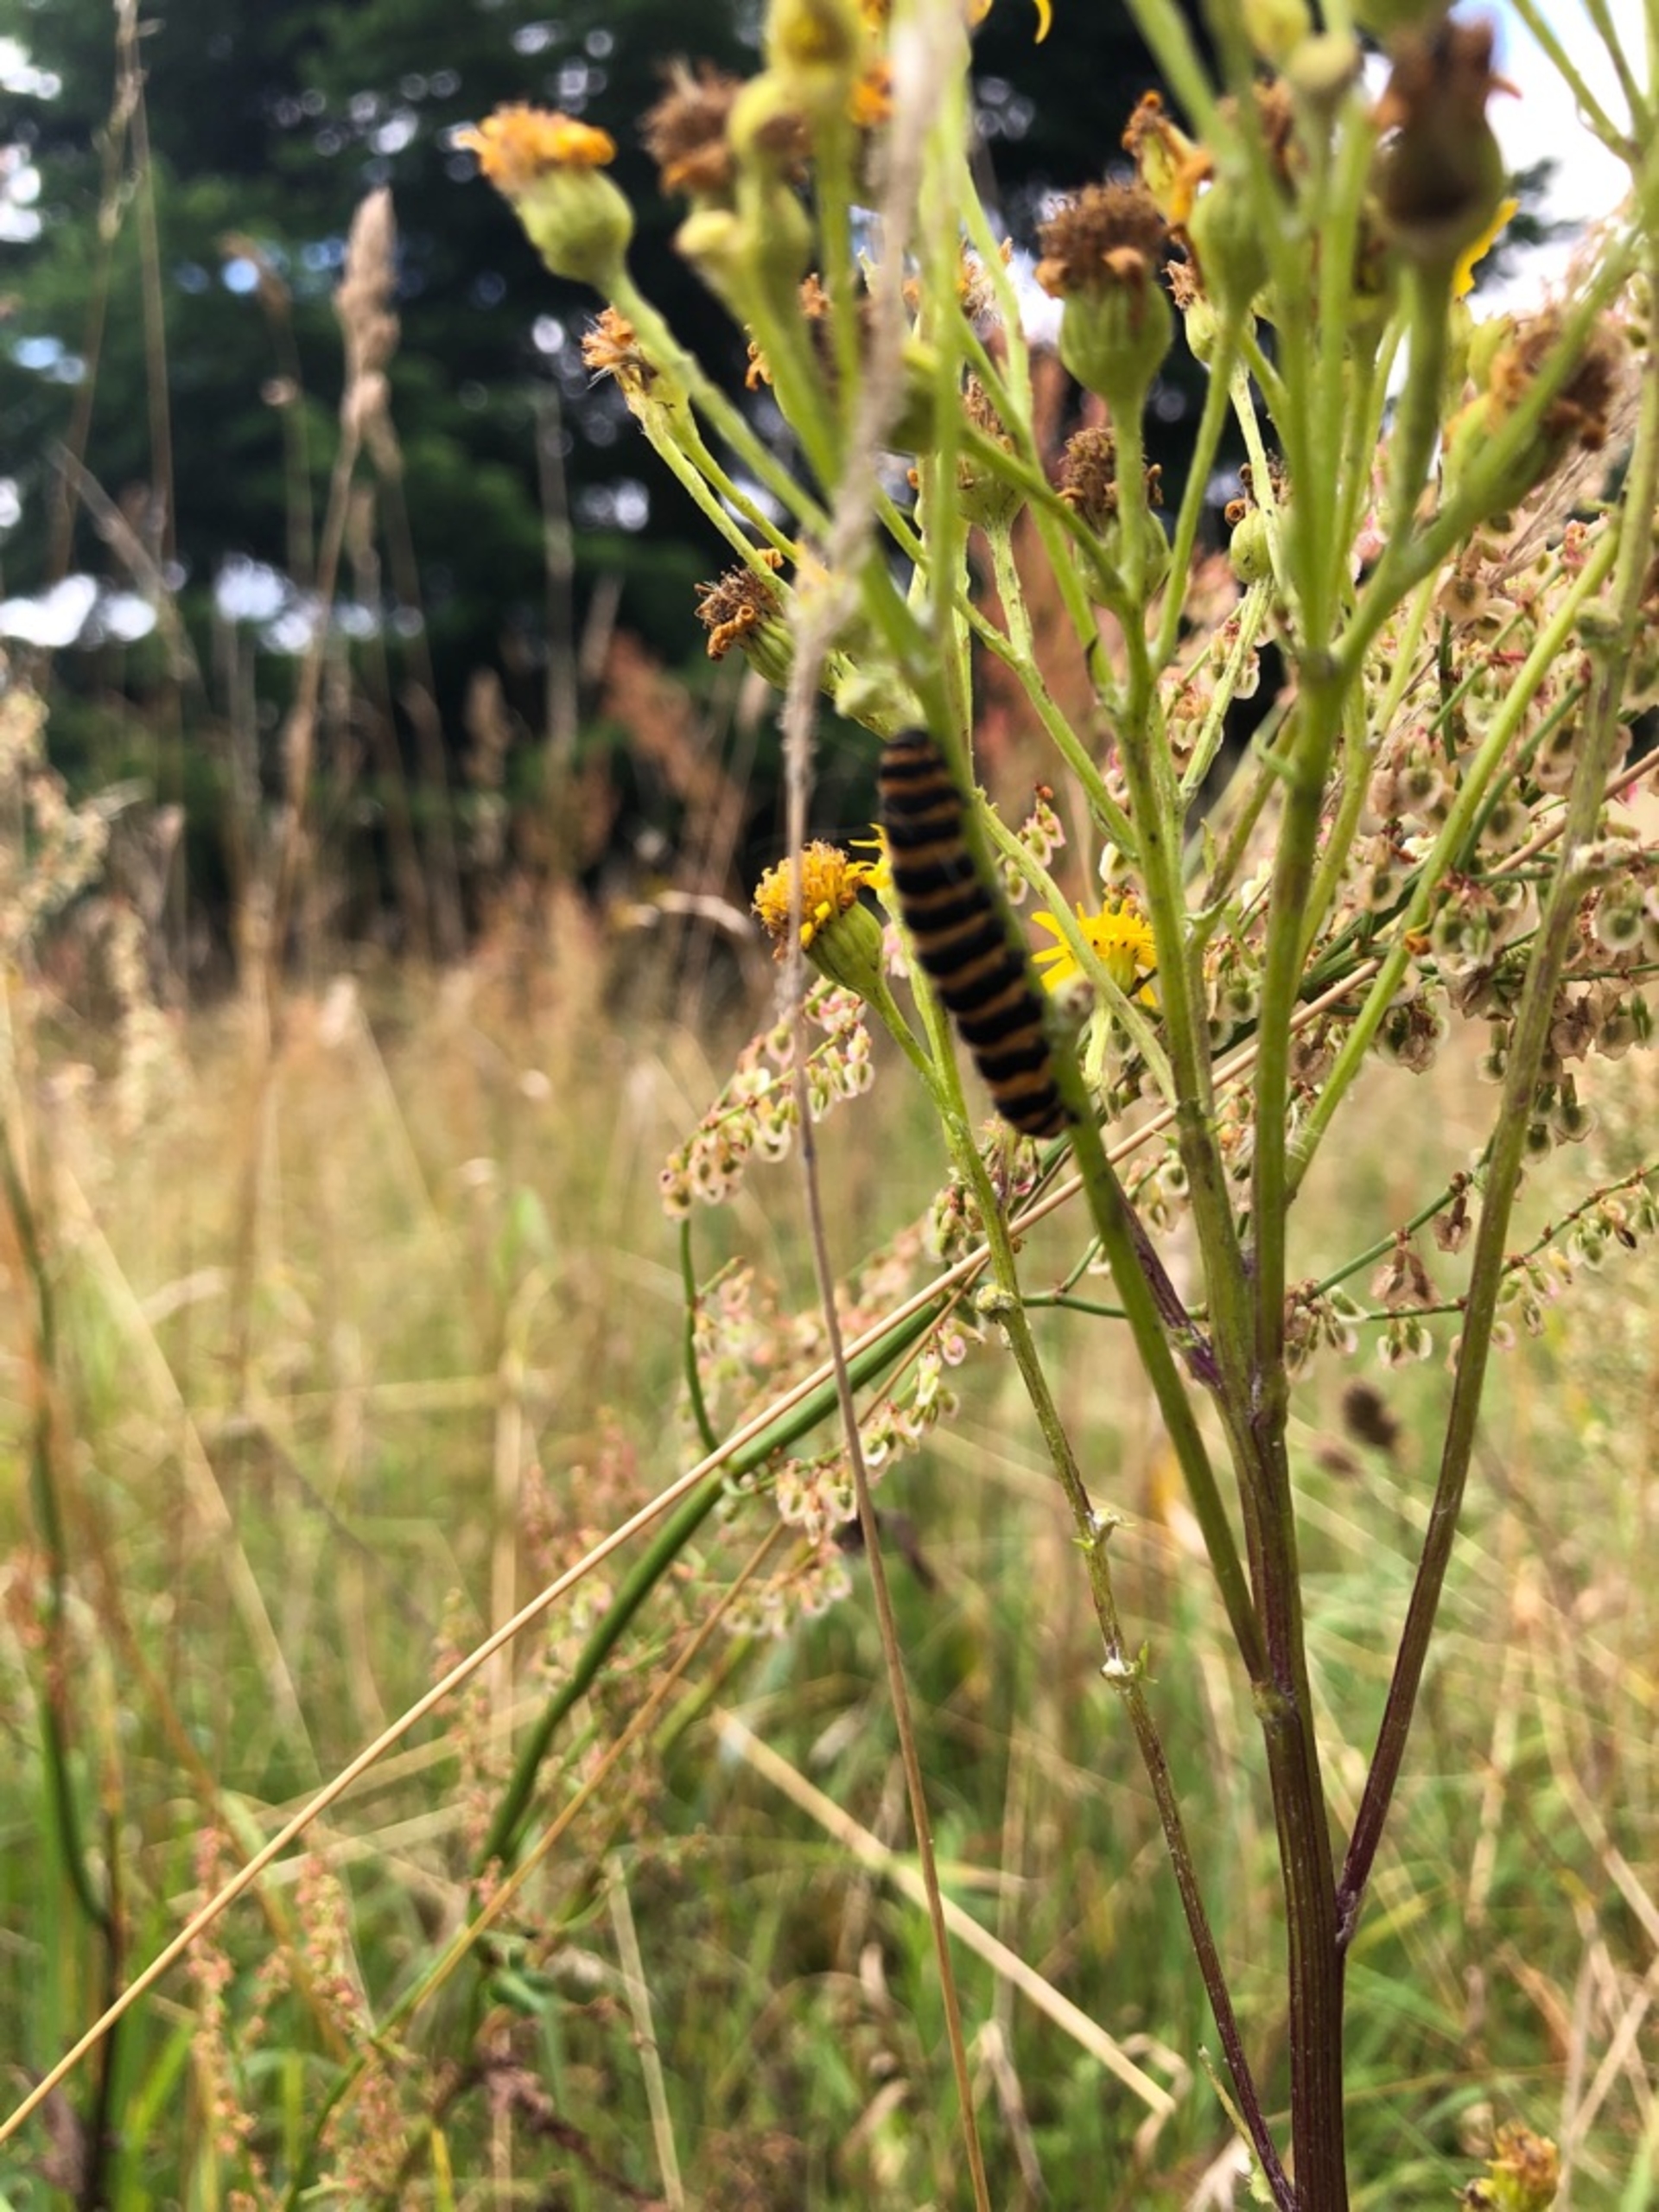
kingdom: Animalia
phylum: Arthropoda
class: Insecta
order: Lepidoptera
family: Erebidae
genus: Tyria
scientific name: Tyria jacobaeae
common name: Blodplet
